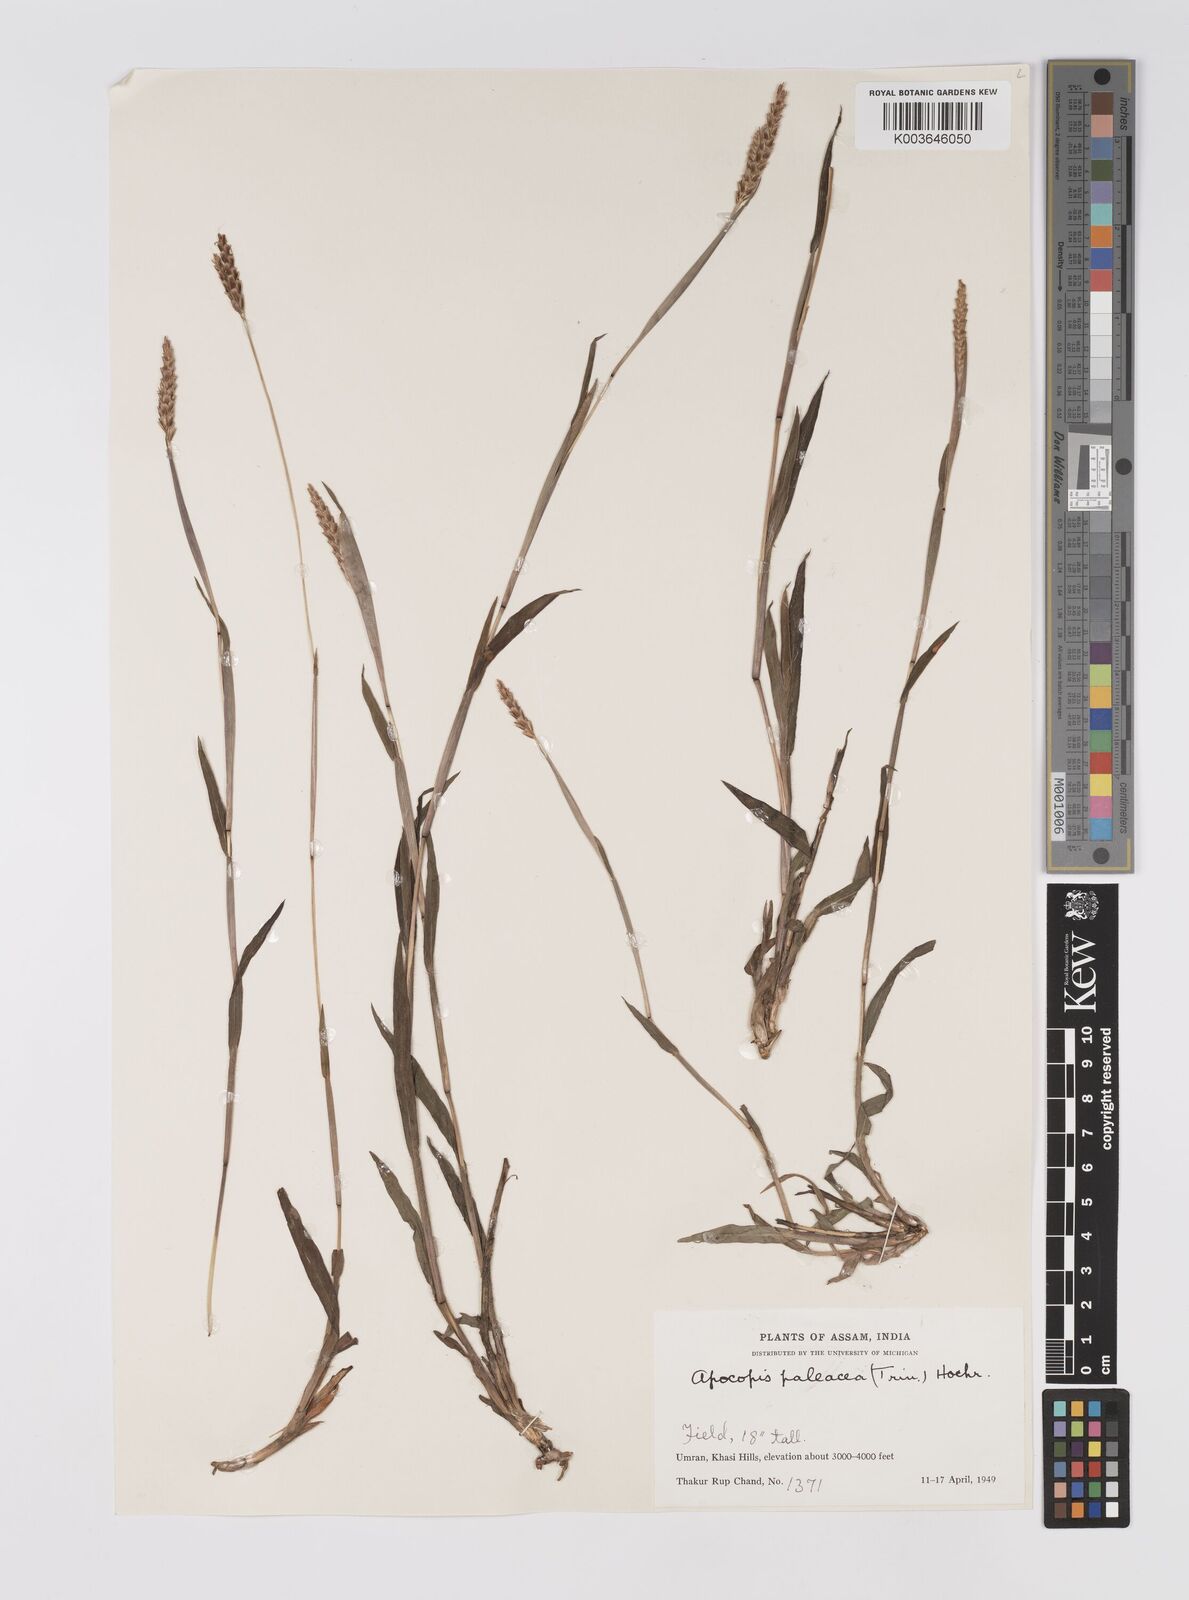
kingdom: Plantae
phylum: Tracheophyta
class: Liliopsida
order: Poales
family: Poaceae
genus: Apocopis
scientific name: Apocopis paleaceus
